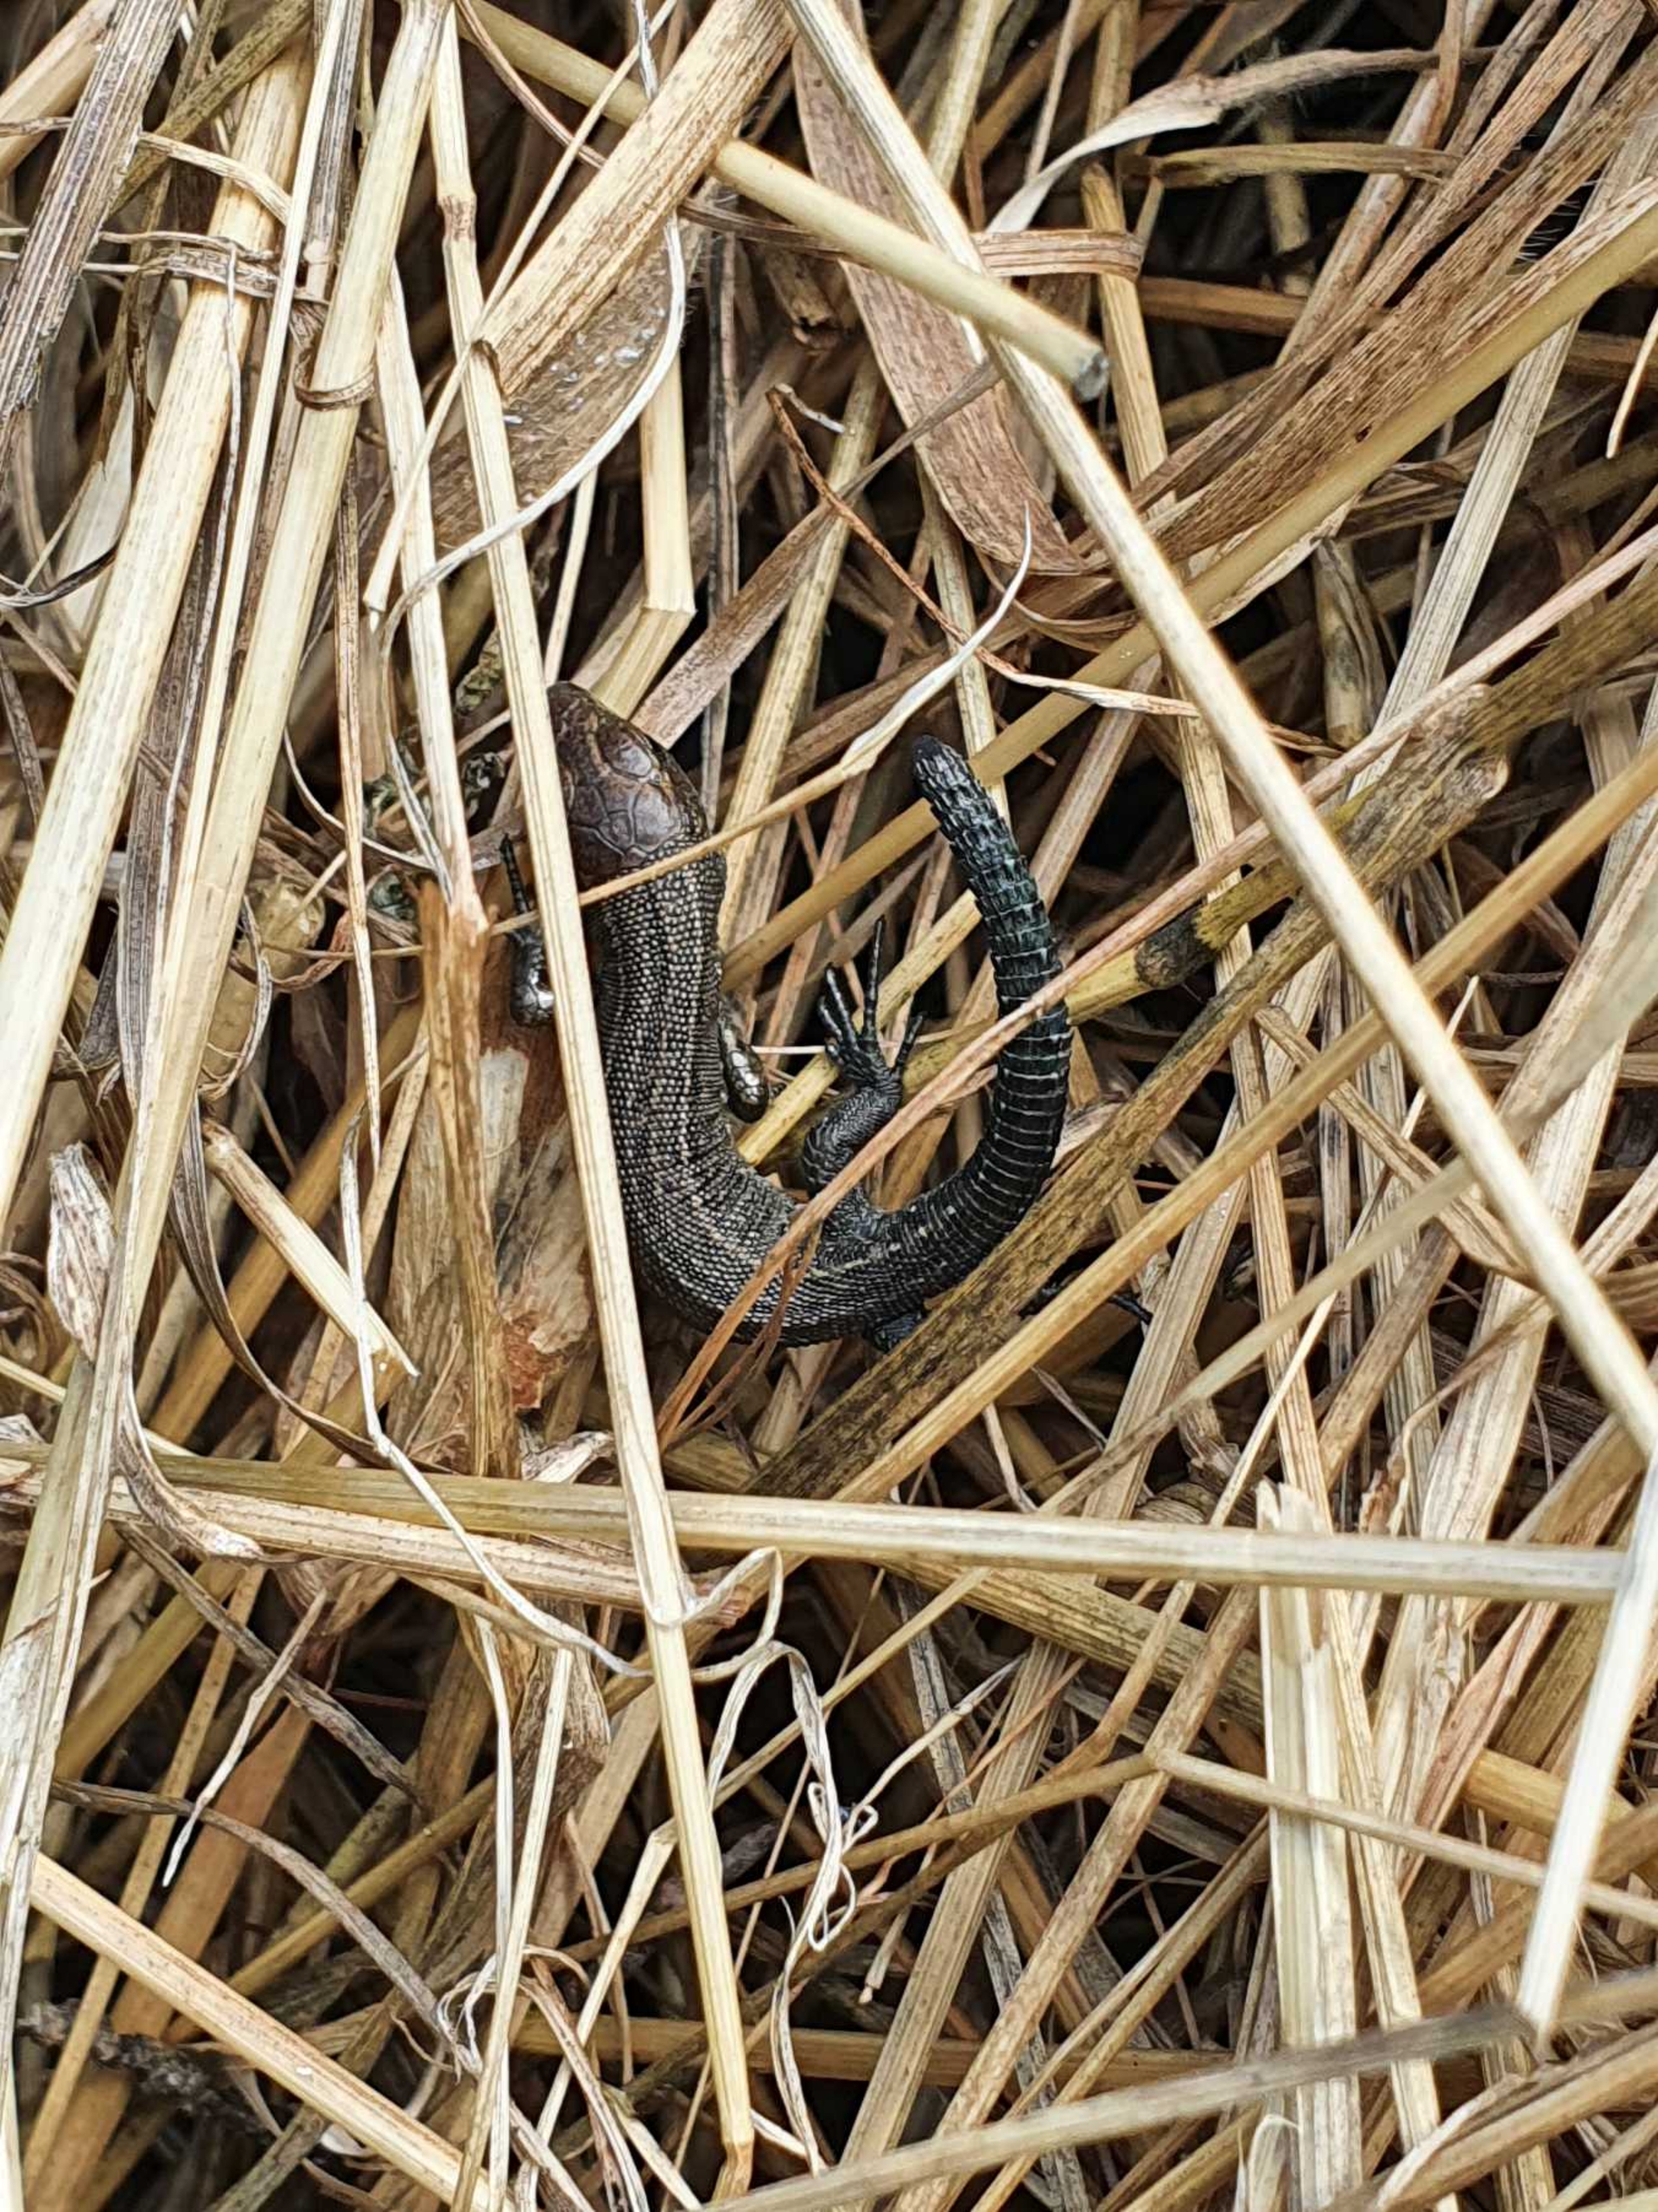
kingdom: Animalia
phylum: Chordata
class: Squamata
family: Lacertidae
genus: Zootoca
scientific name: Zootoca vivipara
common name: Skovfirben
